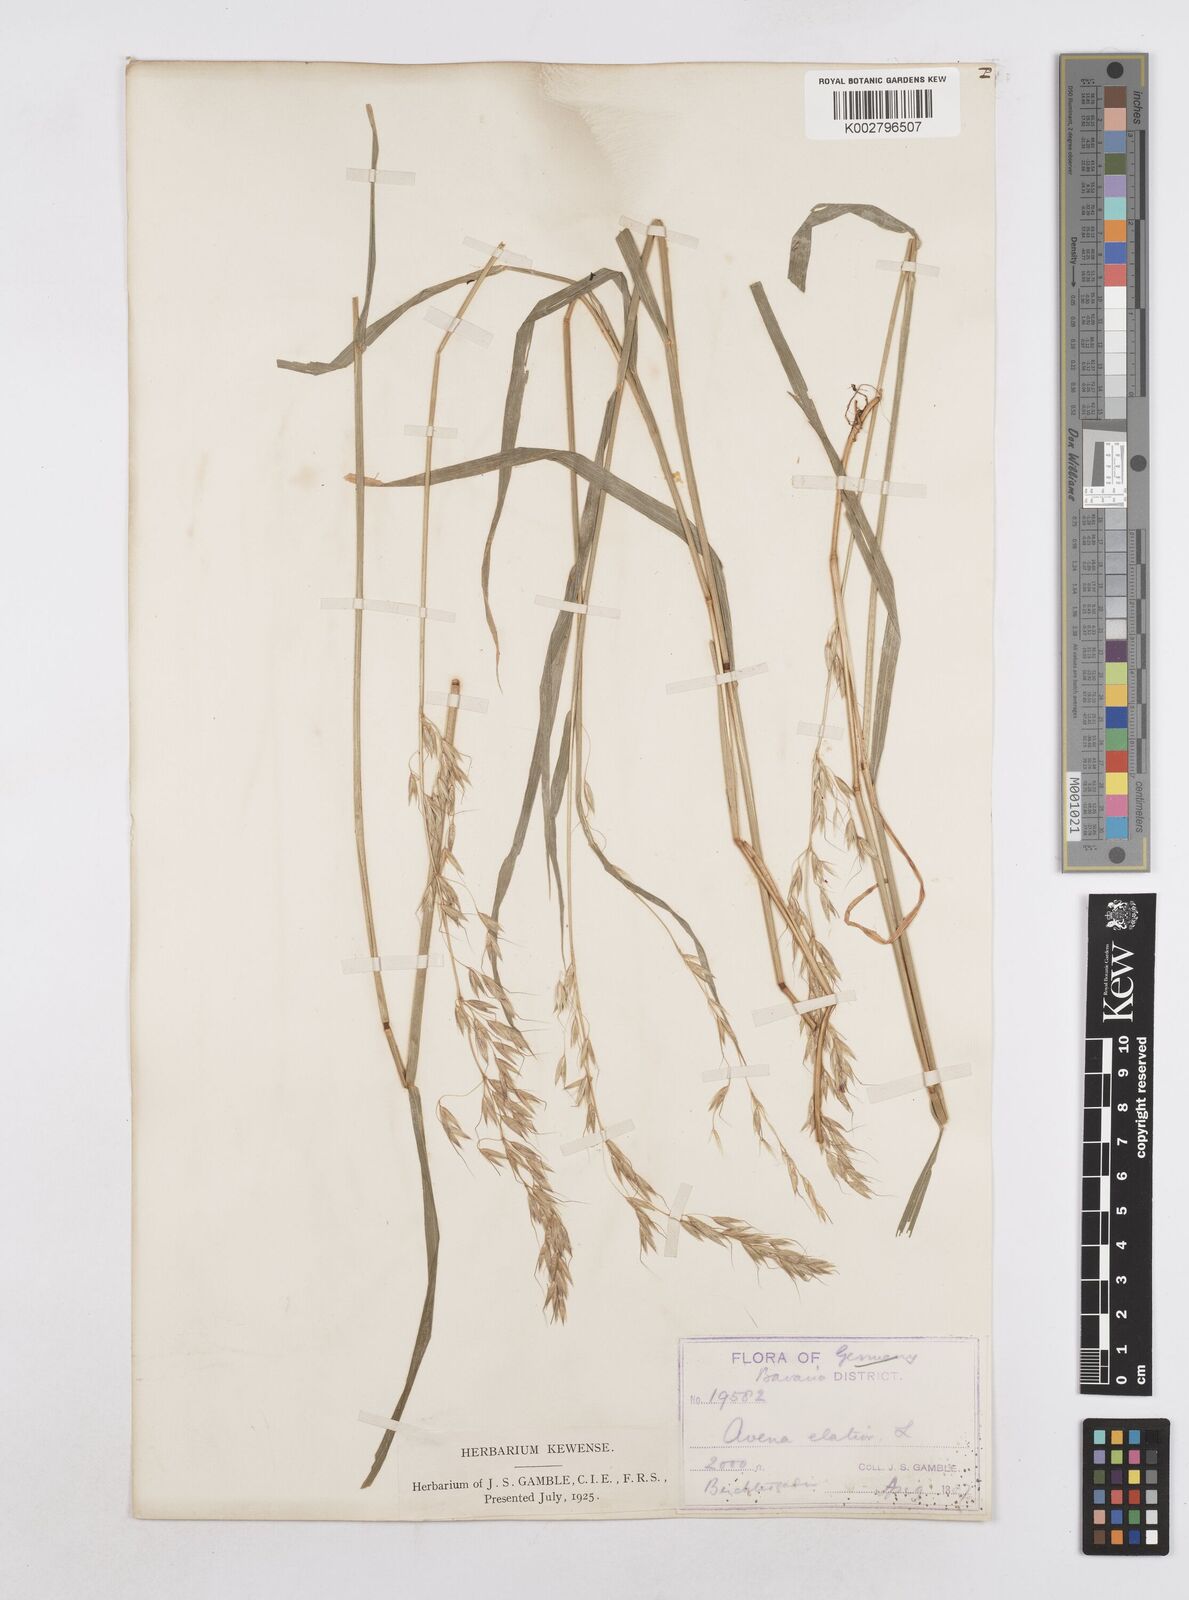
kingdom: Plantae
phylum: Tracheophyta
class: Liliopsida
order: Poales
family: Poaceae
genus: Arrhenatherum
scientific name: Arrhenatherum elatius
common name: Tall oatgrass
